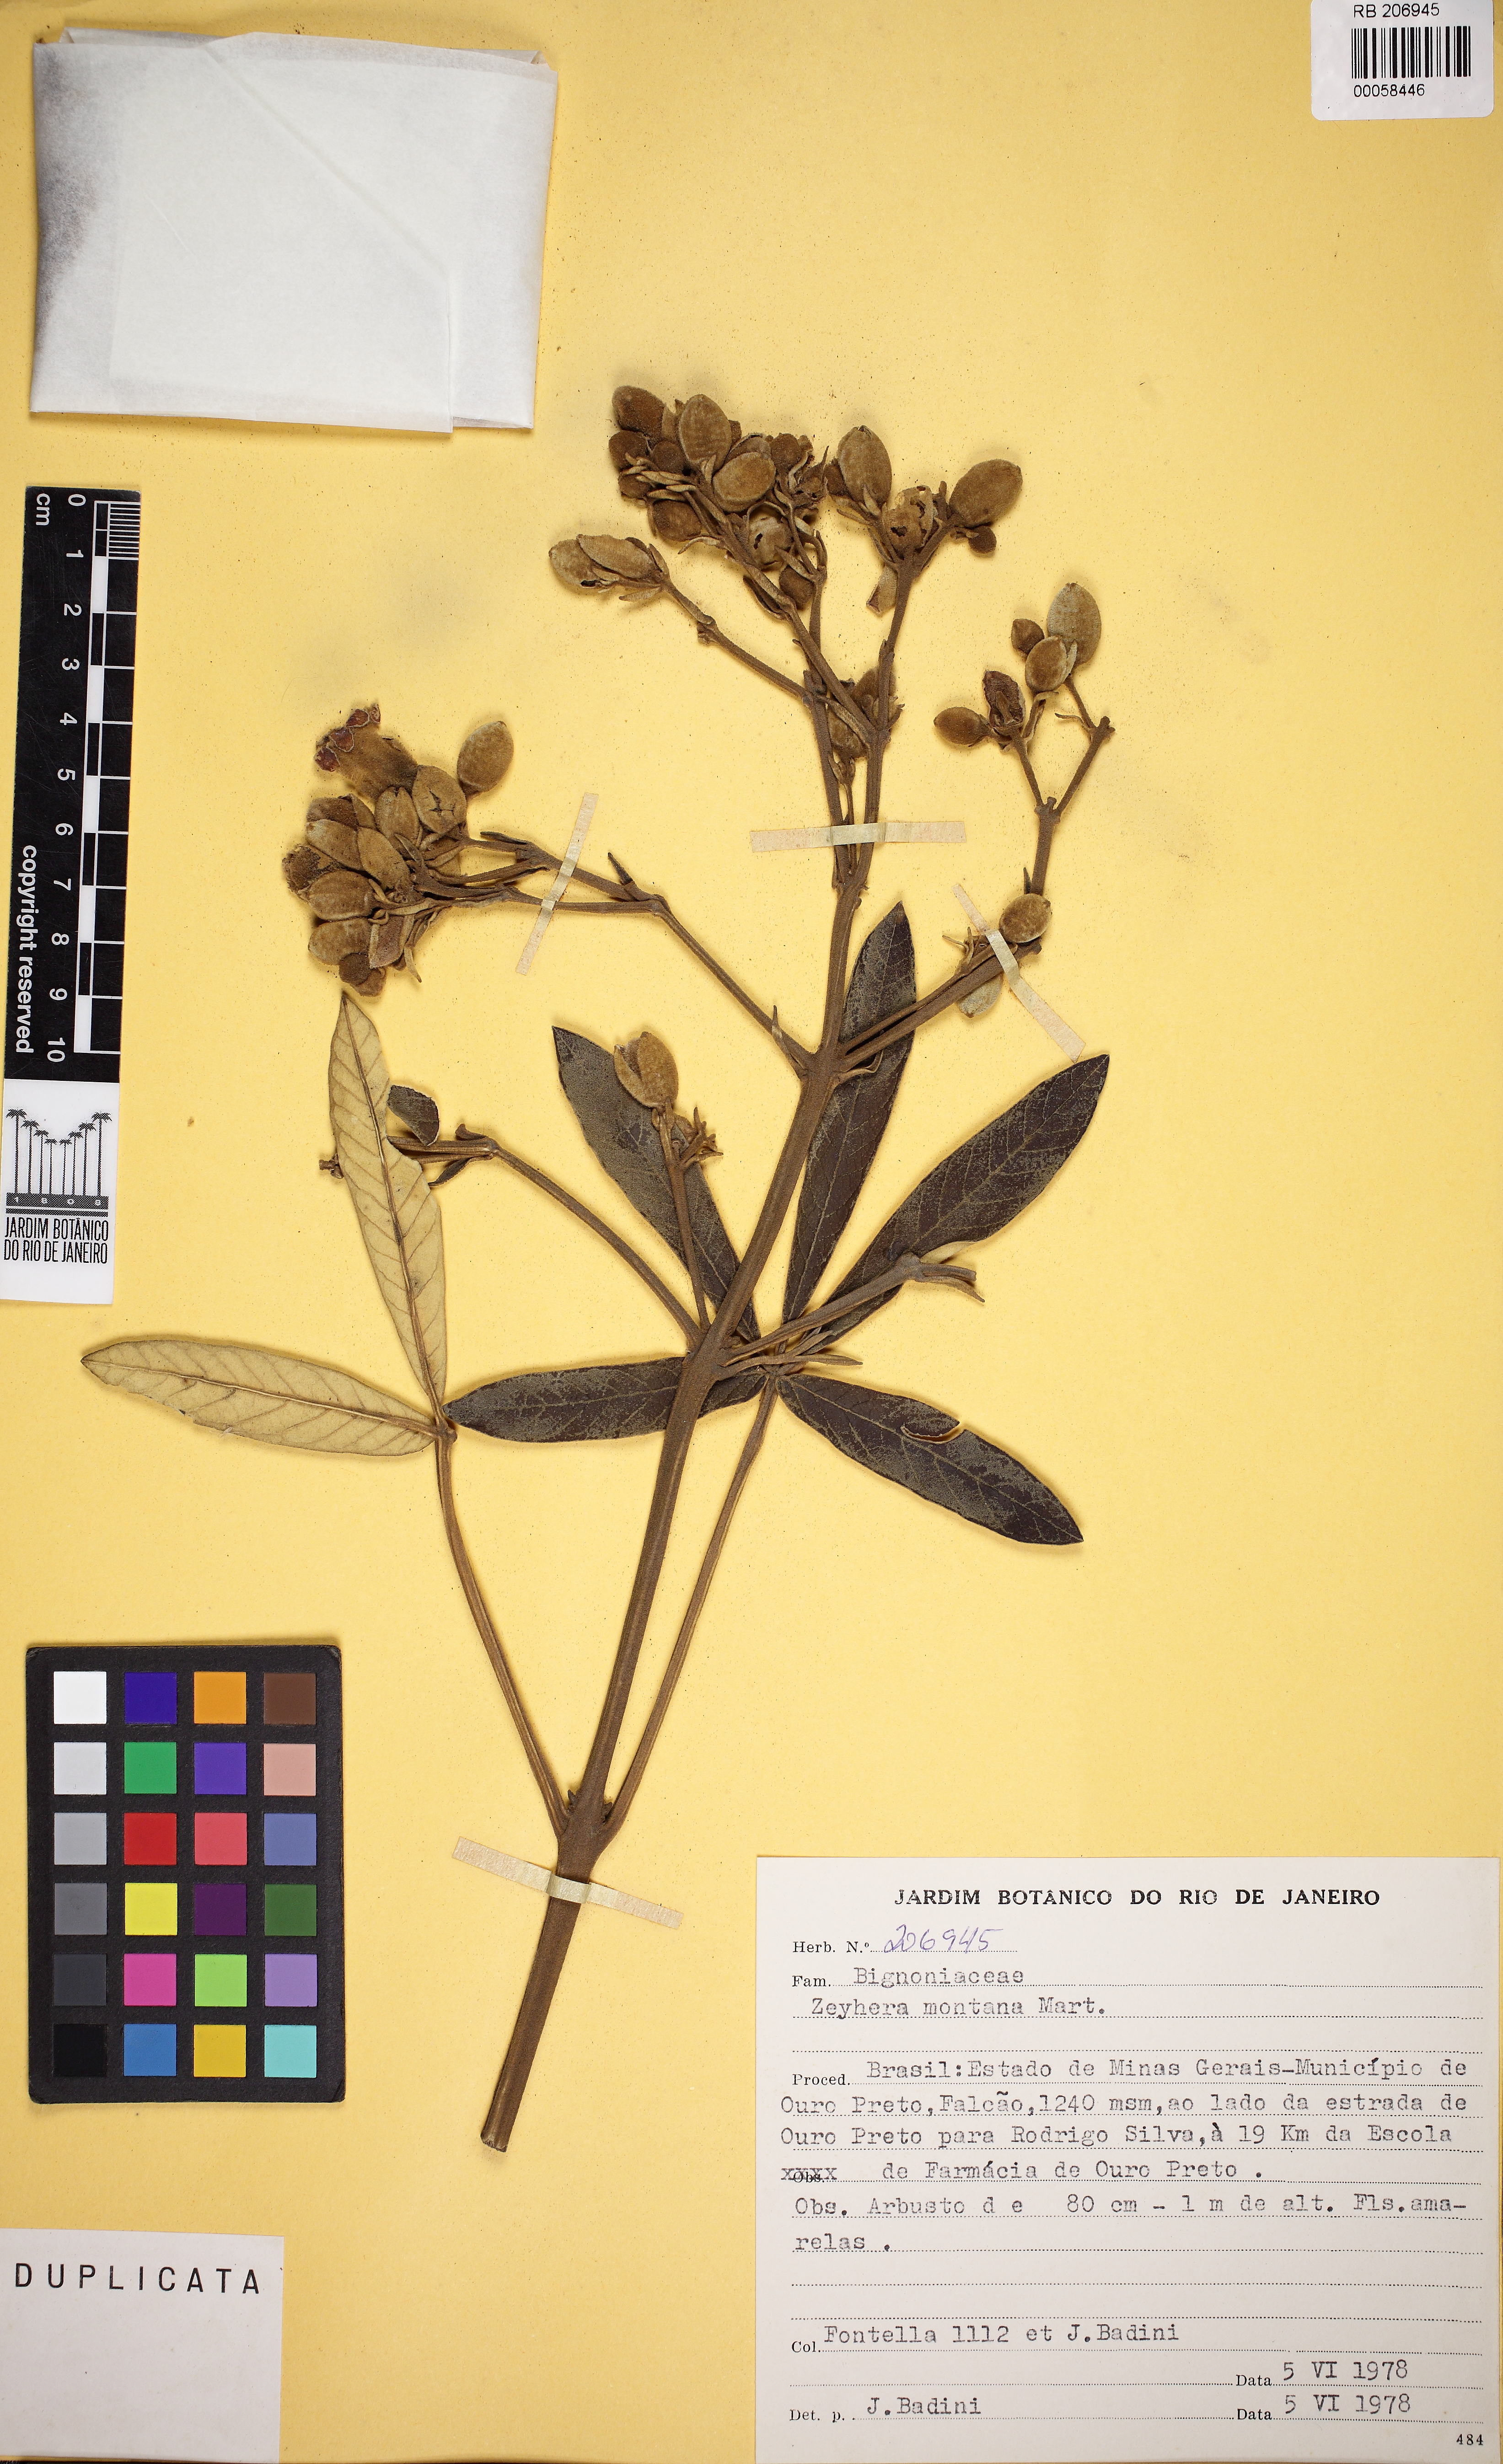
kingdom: Plantae
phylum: Tracheophyta
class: Magnoliopsida
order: Lamiales
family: Bignoniaceae
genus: Zeyheria
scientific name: Zeyheria montana
